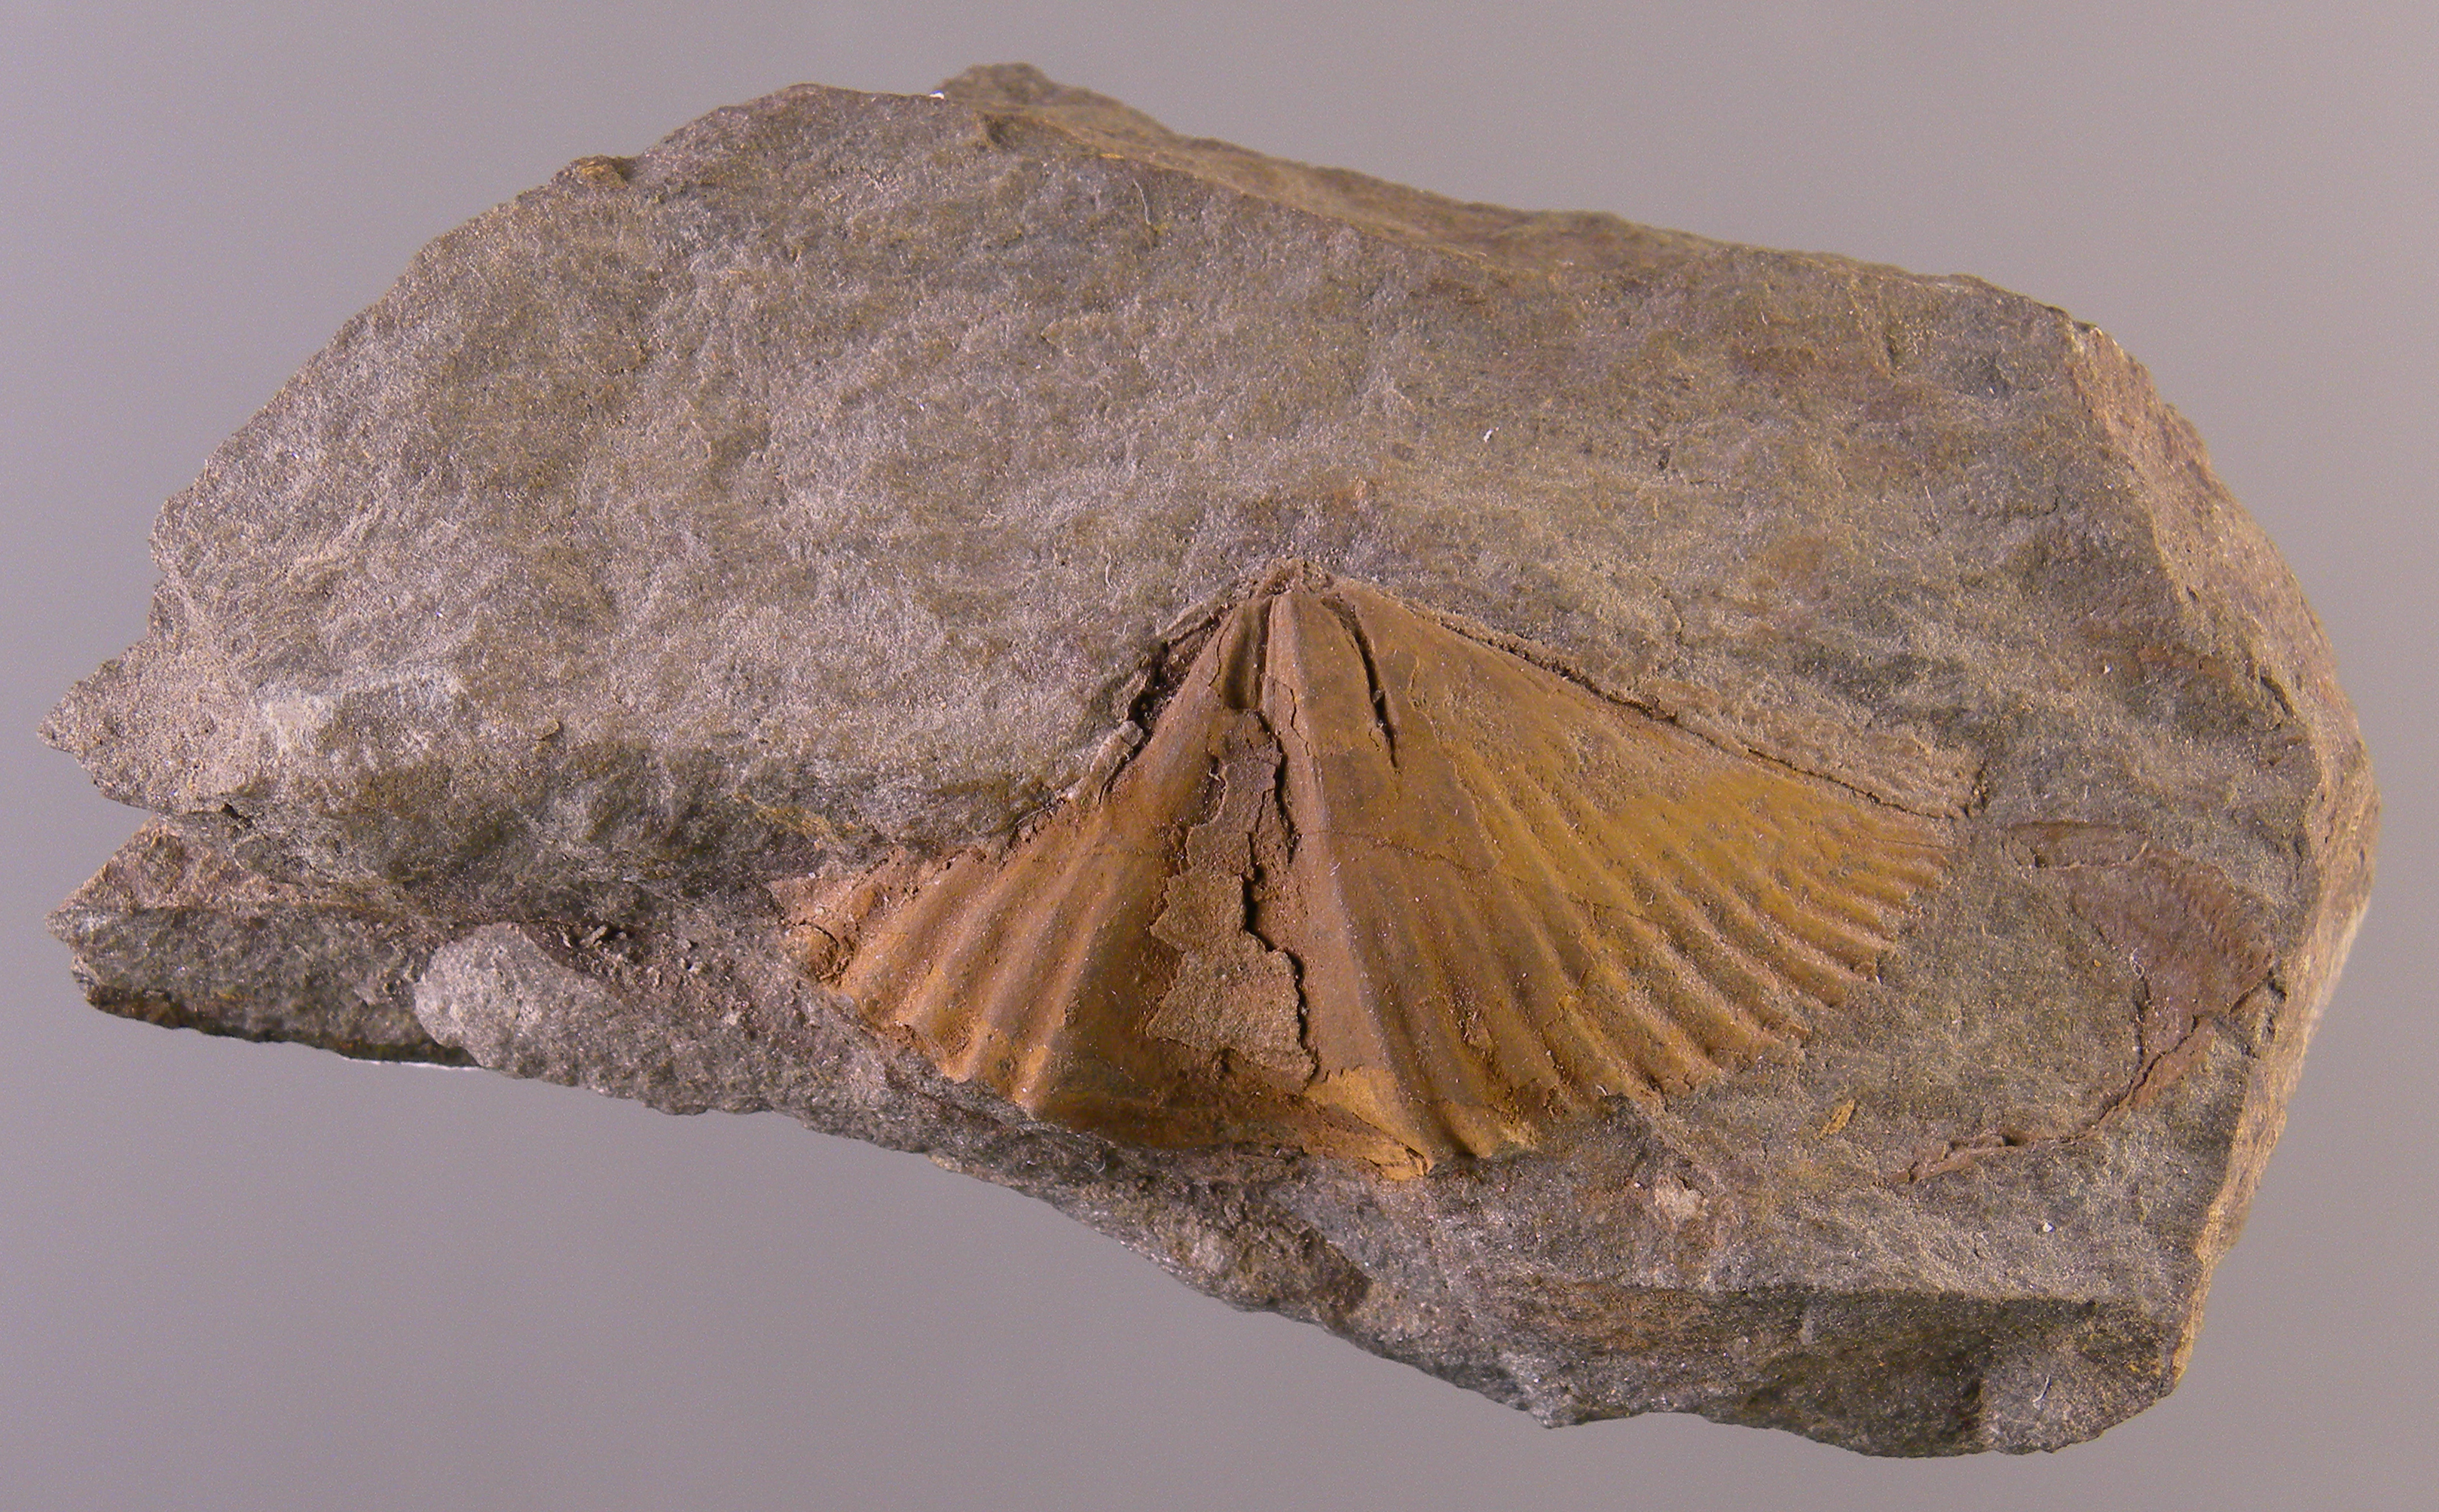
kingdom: Animalia
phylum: Brachiopoda
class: Rhynchonellata
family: Spinocyrtiidae
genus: Subcuspidella
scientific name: Subcuspidella
